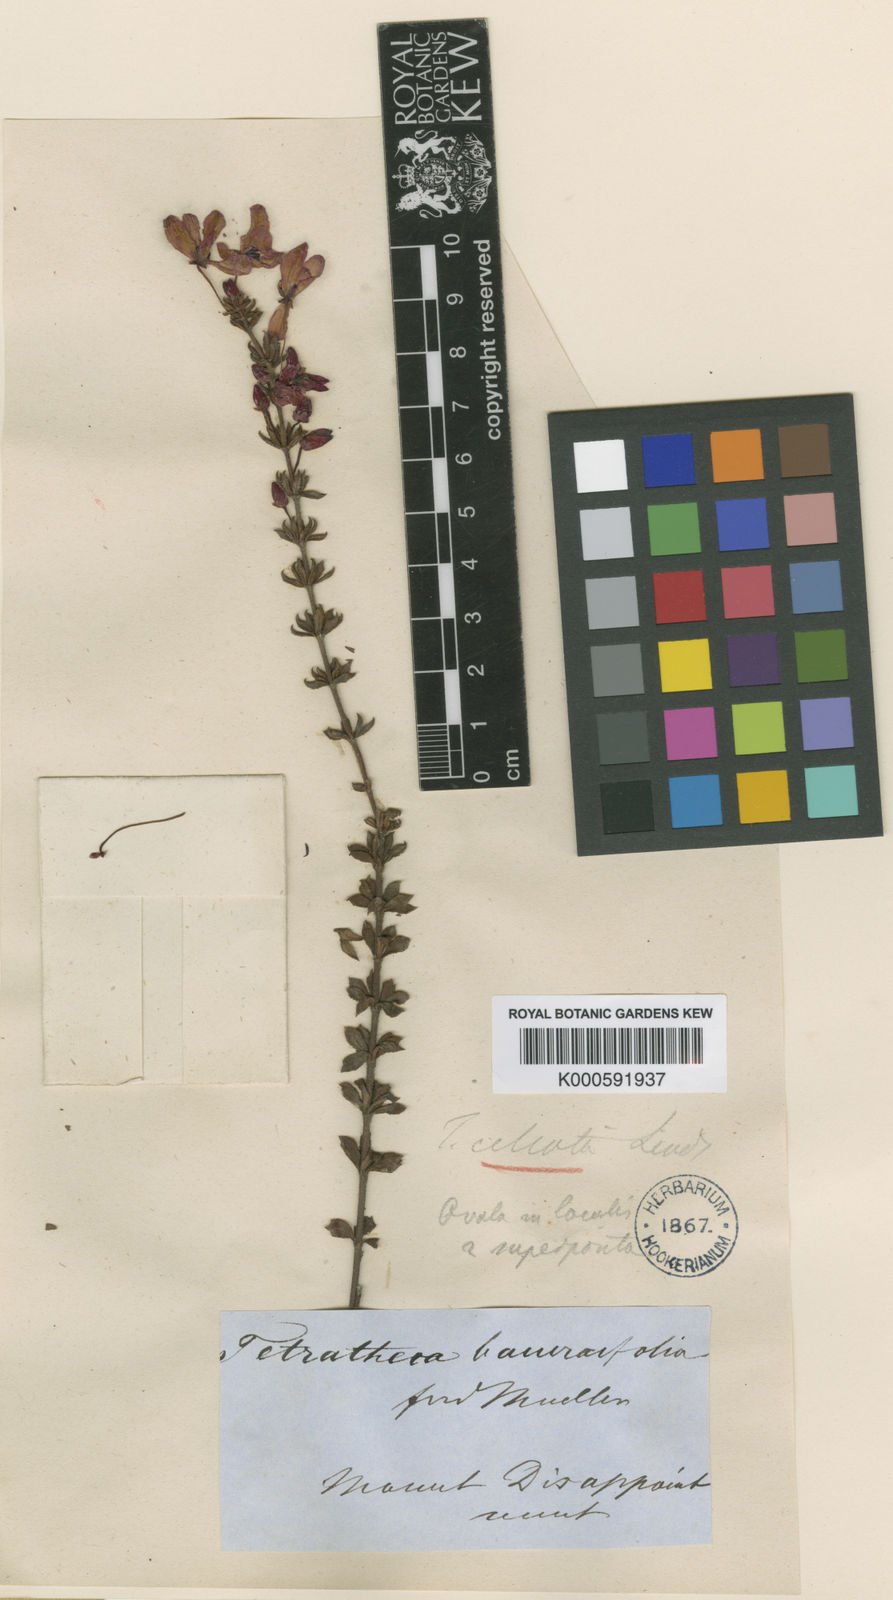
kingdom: Plantae
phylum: Tracheophyta
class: Magnoliopsida
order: Oxalidales
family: Elaeocarpaceae
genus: Tetratheca
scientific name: Tetratheca
